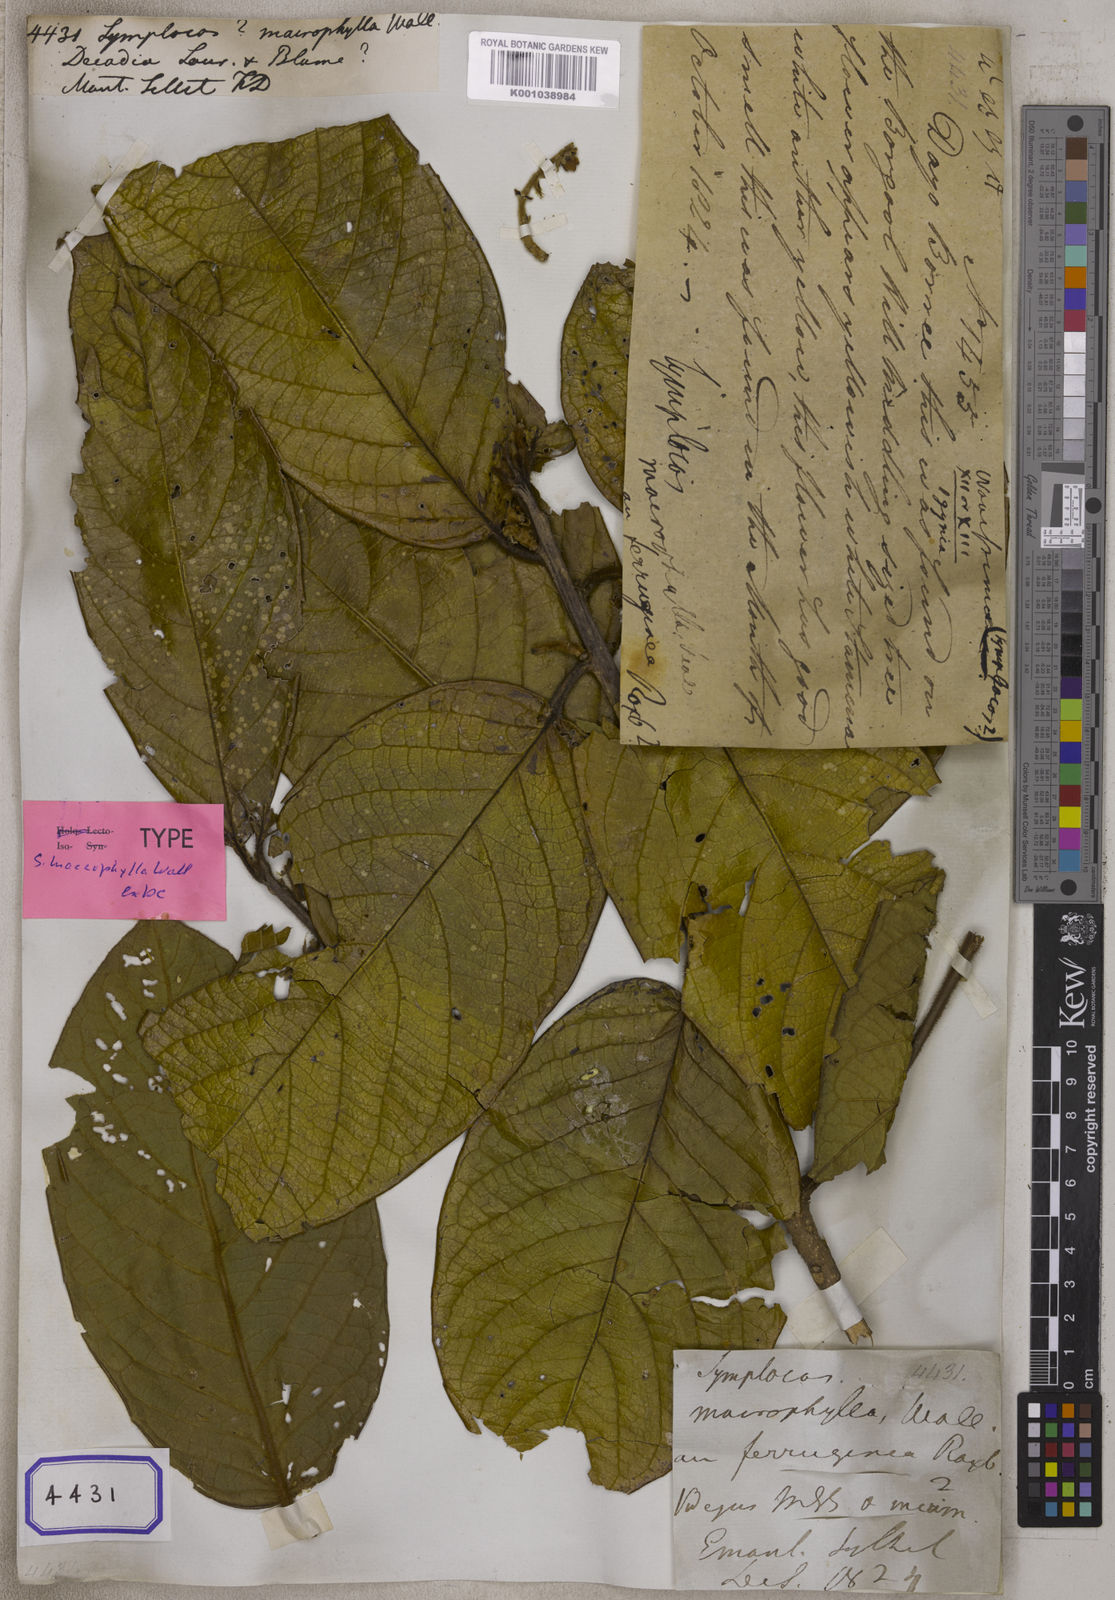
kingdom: Plantae
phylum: Tracheophyta
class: Magnoliopsida
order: Ericales
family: Symplocaceae
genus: Symplocos
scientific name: Symplocos
